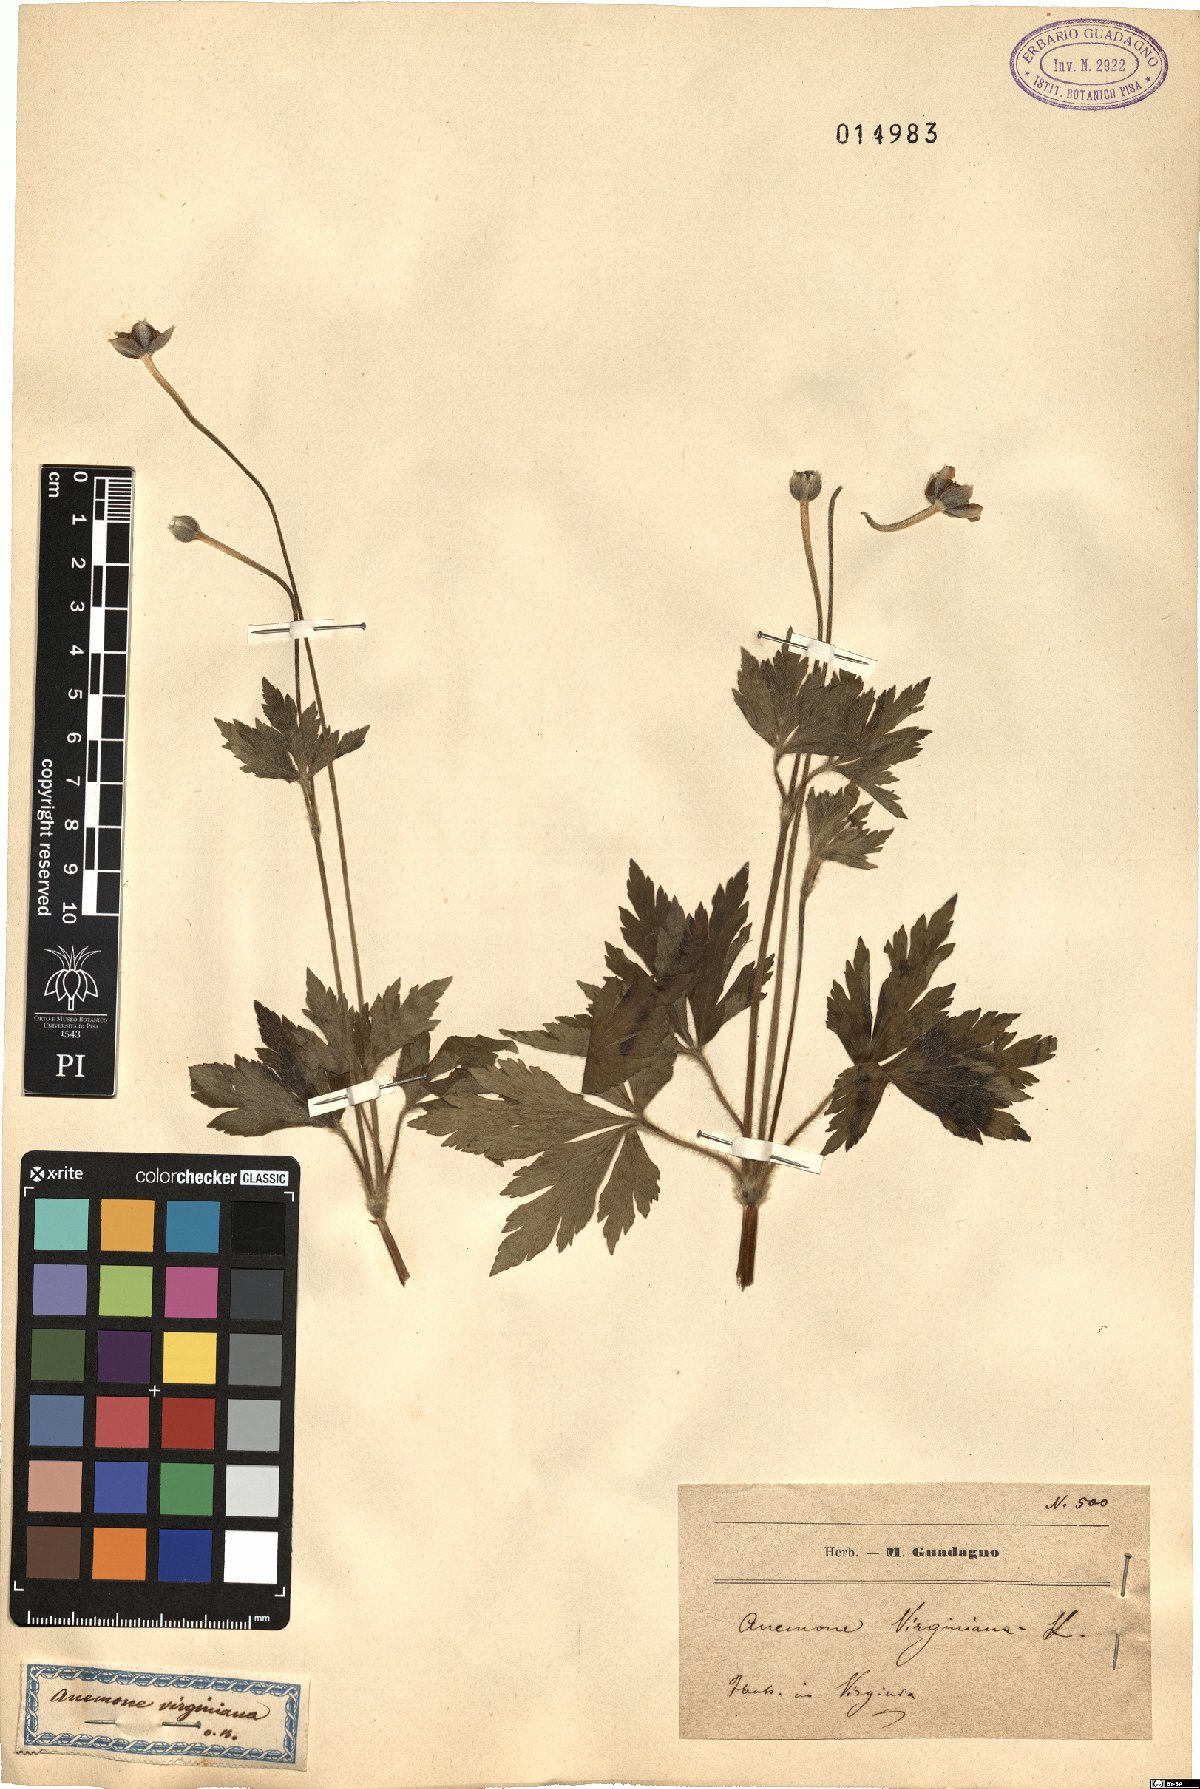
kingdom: Plantae
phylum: Tracheophyta
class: Magnoliopsida
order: Ranunculales
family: Ranunculaceae
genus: Anemone
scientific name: Anemone virginiana
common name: Tall anemone
